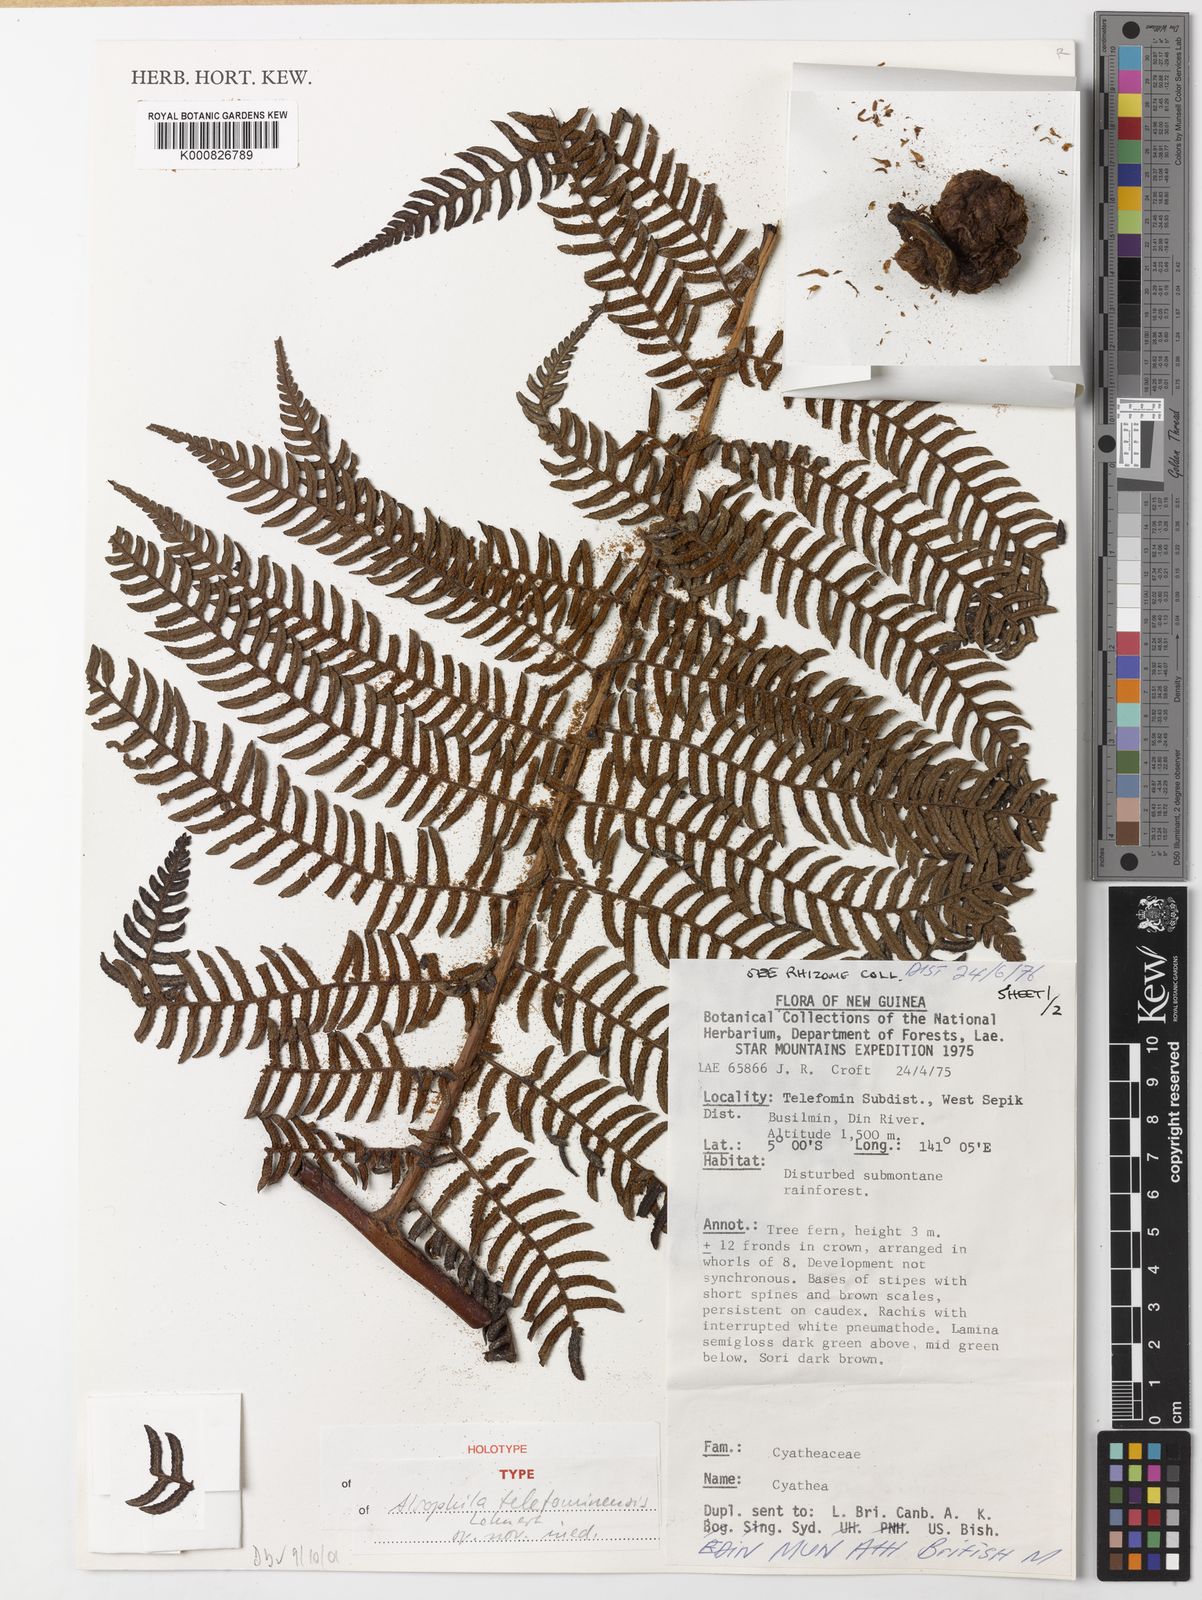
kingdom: Plantae
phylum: Tracheophyta
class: Polypodiopsida
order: Cyatheales
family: Cyatheaceae
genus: Alsophila
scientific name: Alsophila telefominensis
